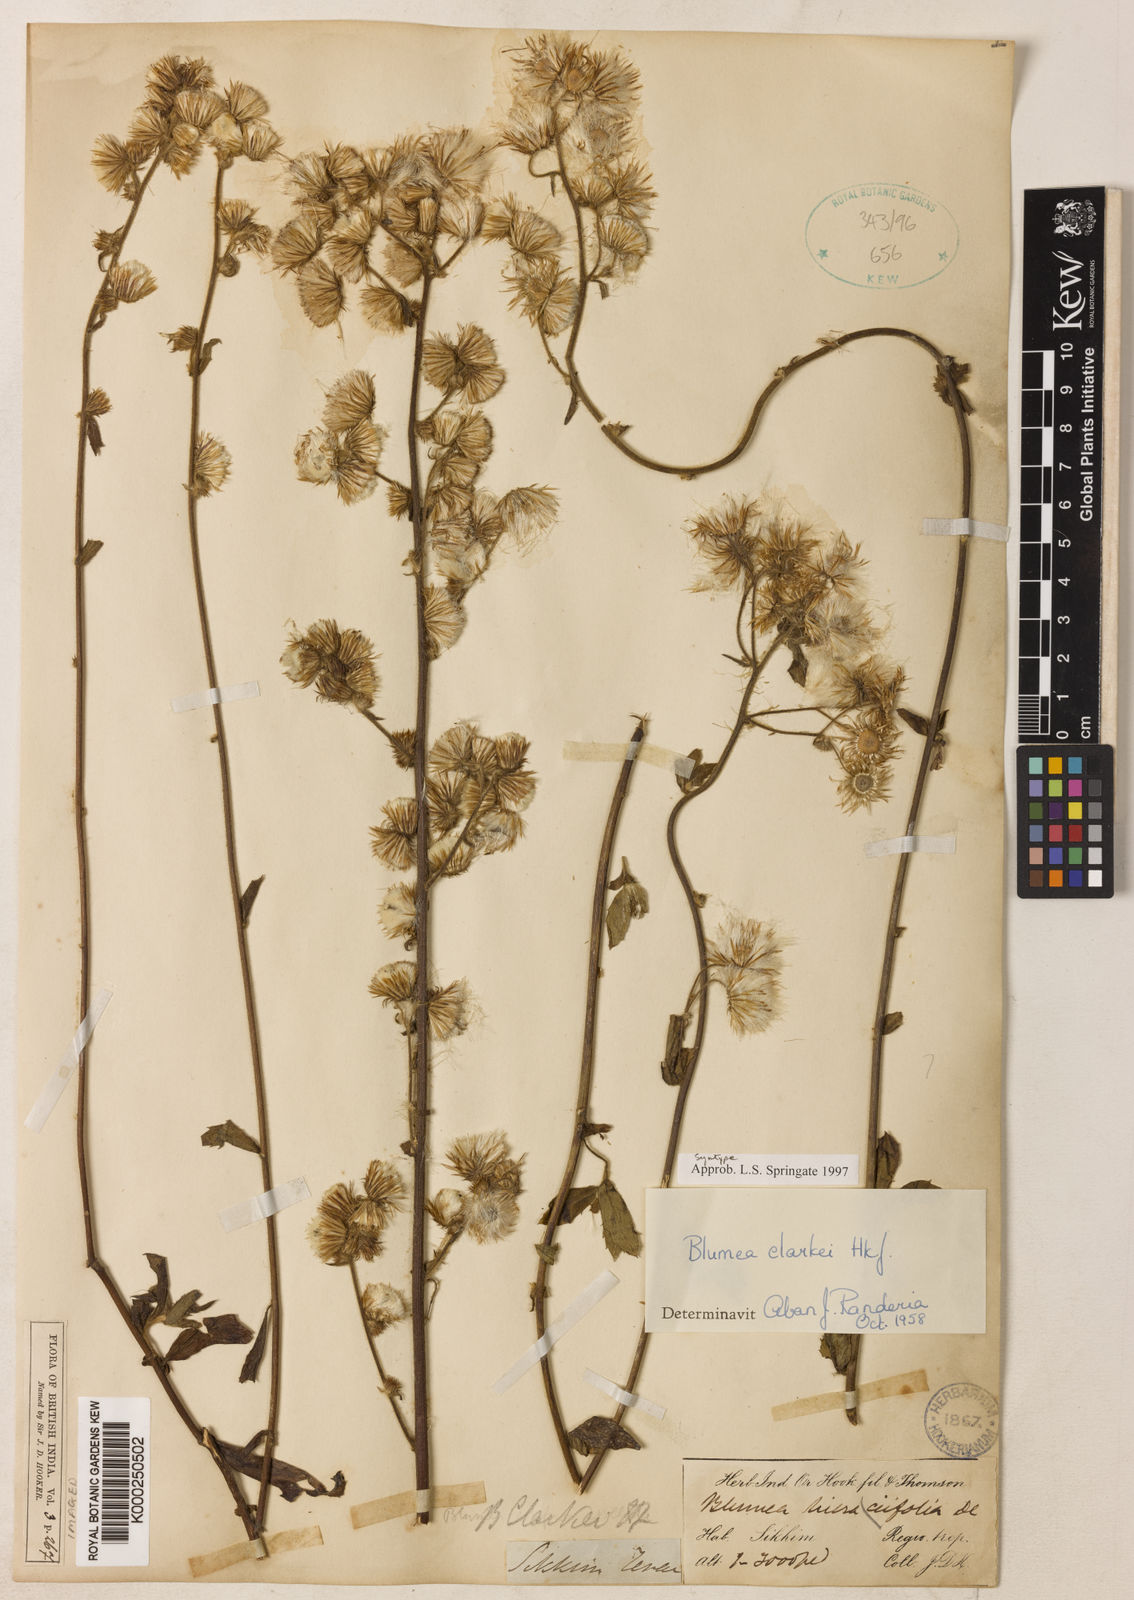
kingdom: Plantae
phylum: Tracheophyta
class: Magnoliopsida
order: Asterales
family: Asteraceae
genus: Blumea
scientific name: Blumea hirsuta
